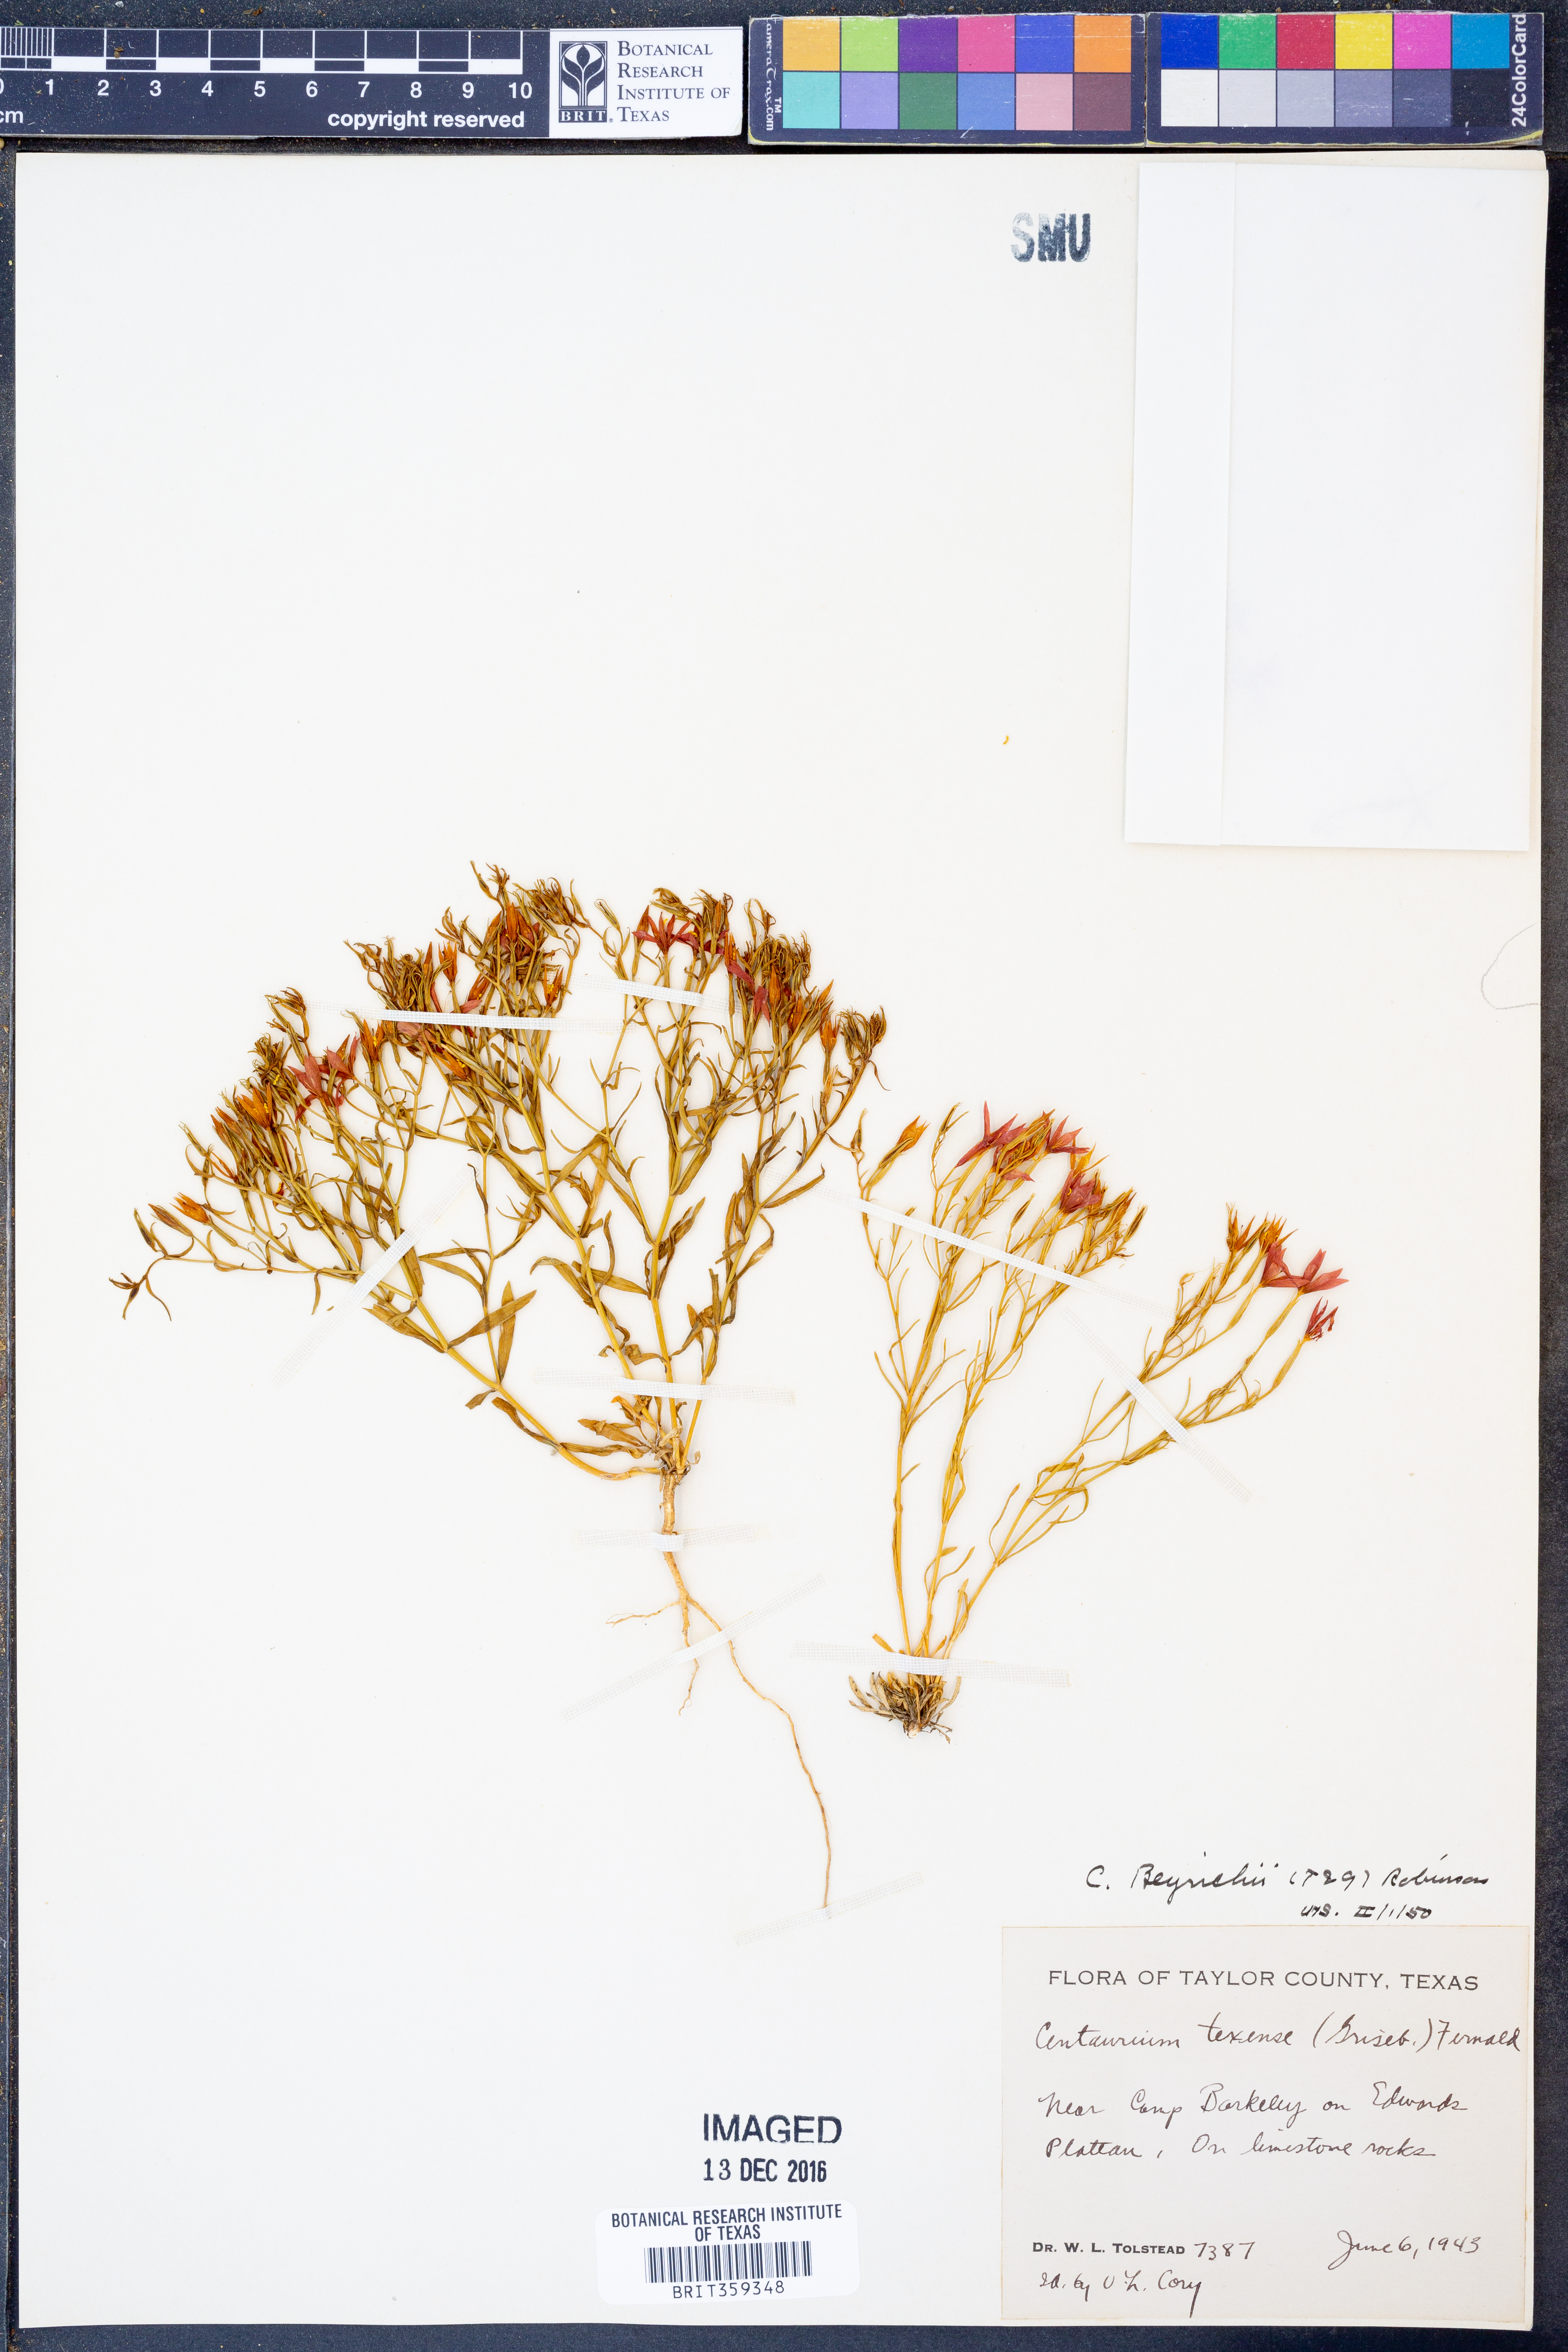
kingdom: Plantae
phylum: Tracheophyta
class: Magnoliopsida
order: Gentianales
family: Gentianaceae
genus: Zeltnera
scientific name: Zeltnera beyrichii
